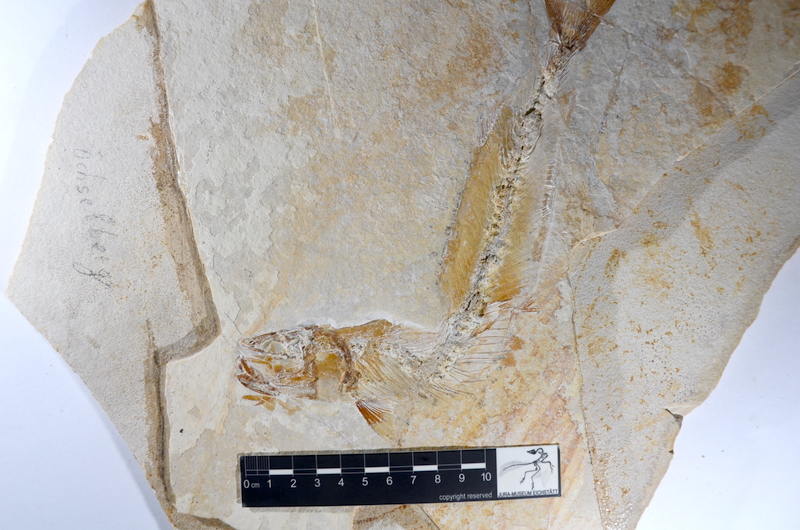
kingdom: Animalia
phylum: Chordata
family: Allothrissopidae
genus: Allothrissops
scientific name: Allothrissops mesogaster
